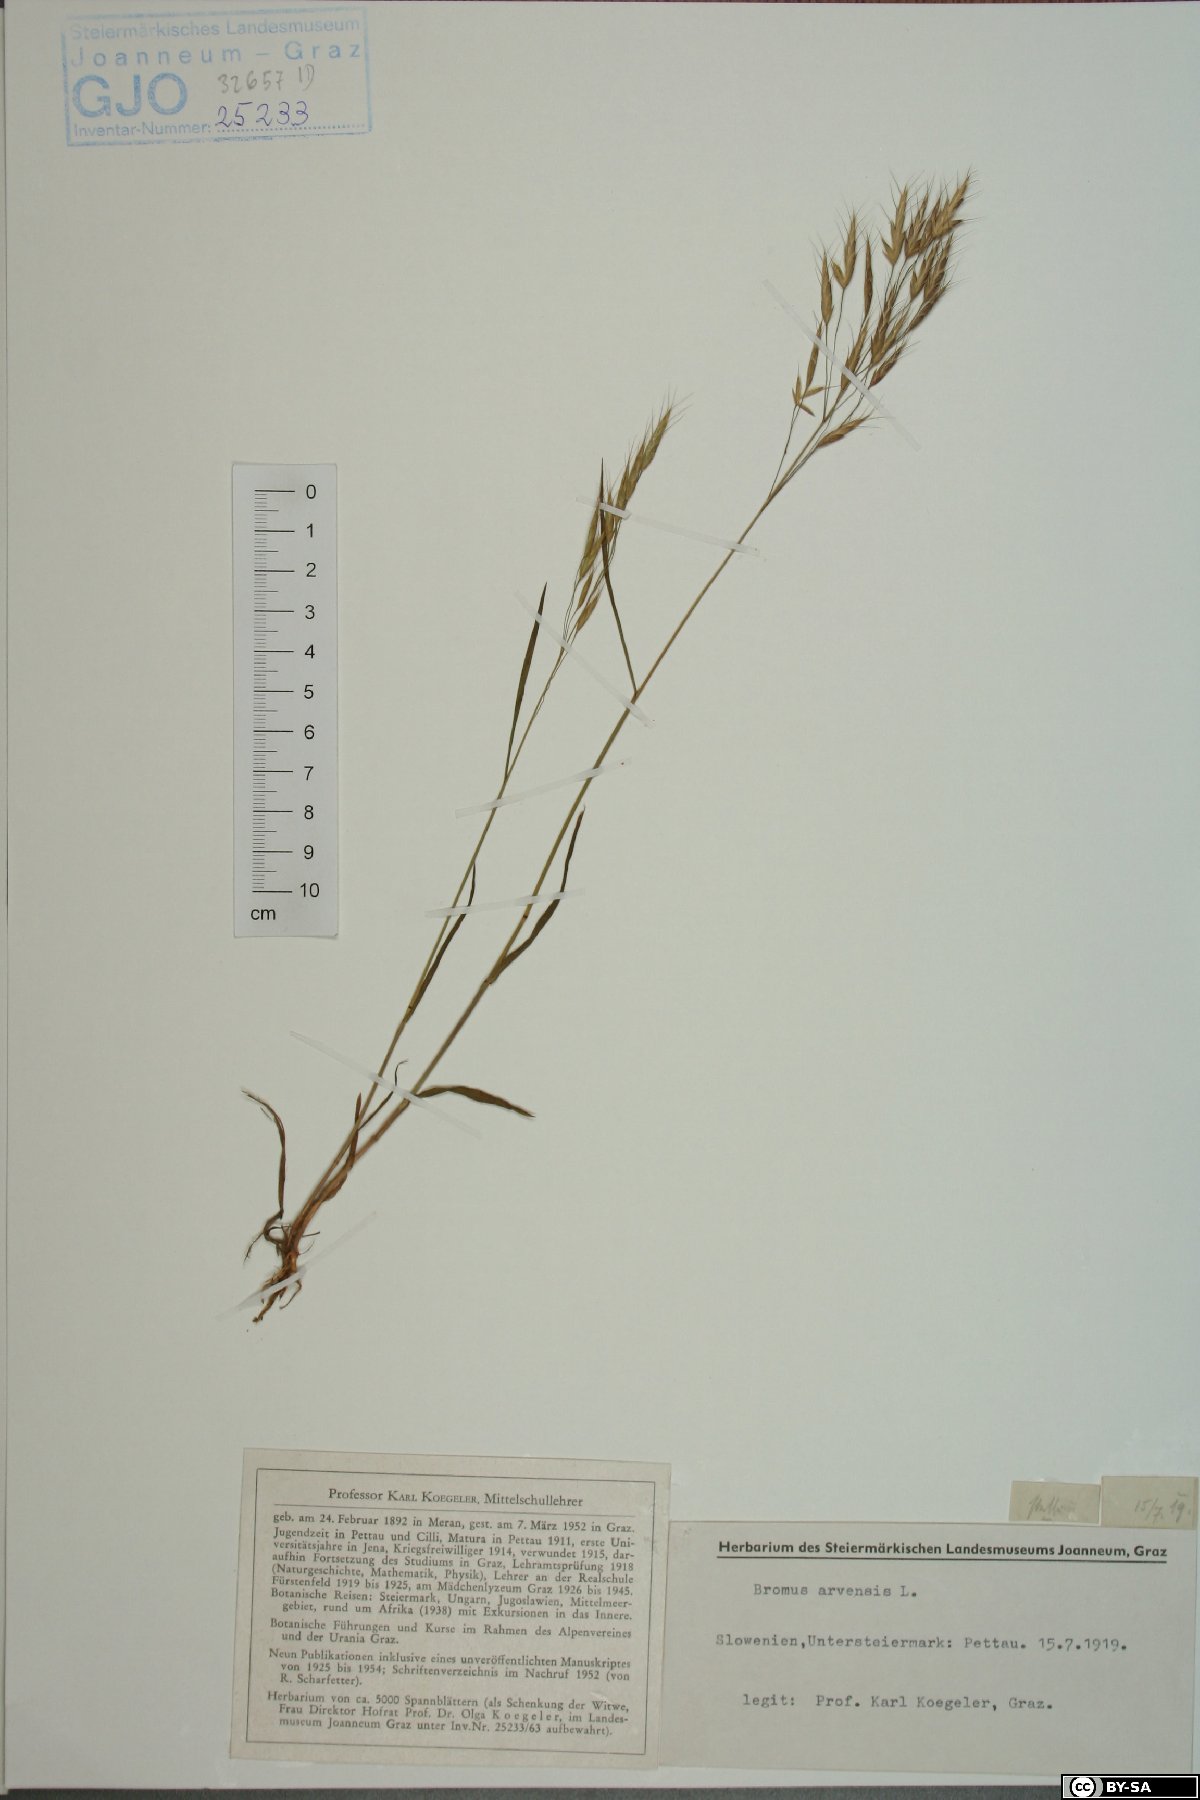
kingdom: Plantae
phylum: Tracheophyta
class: Liliopsida
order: Poales
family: Poaceae
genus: Bromus
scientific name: Bromus arvensis
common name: Field brome
